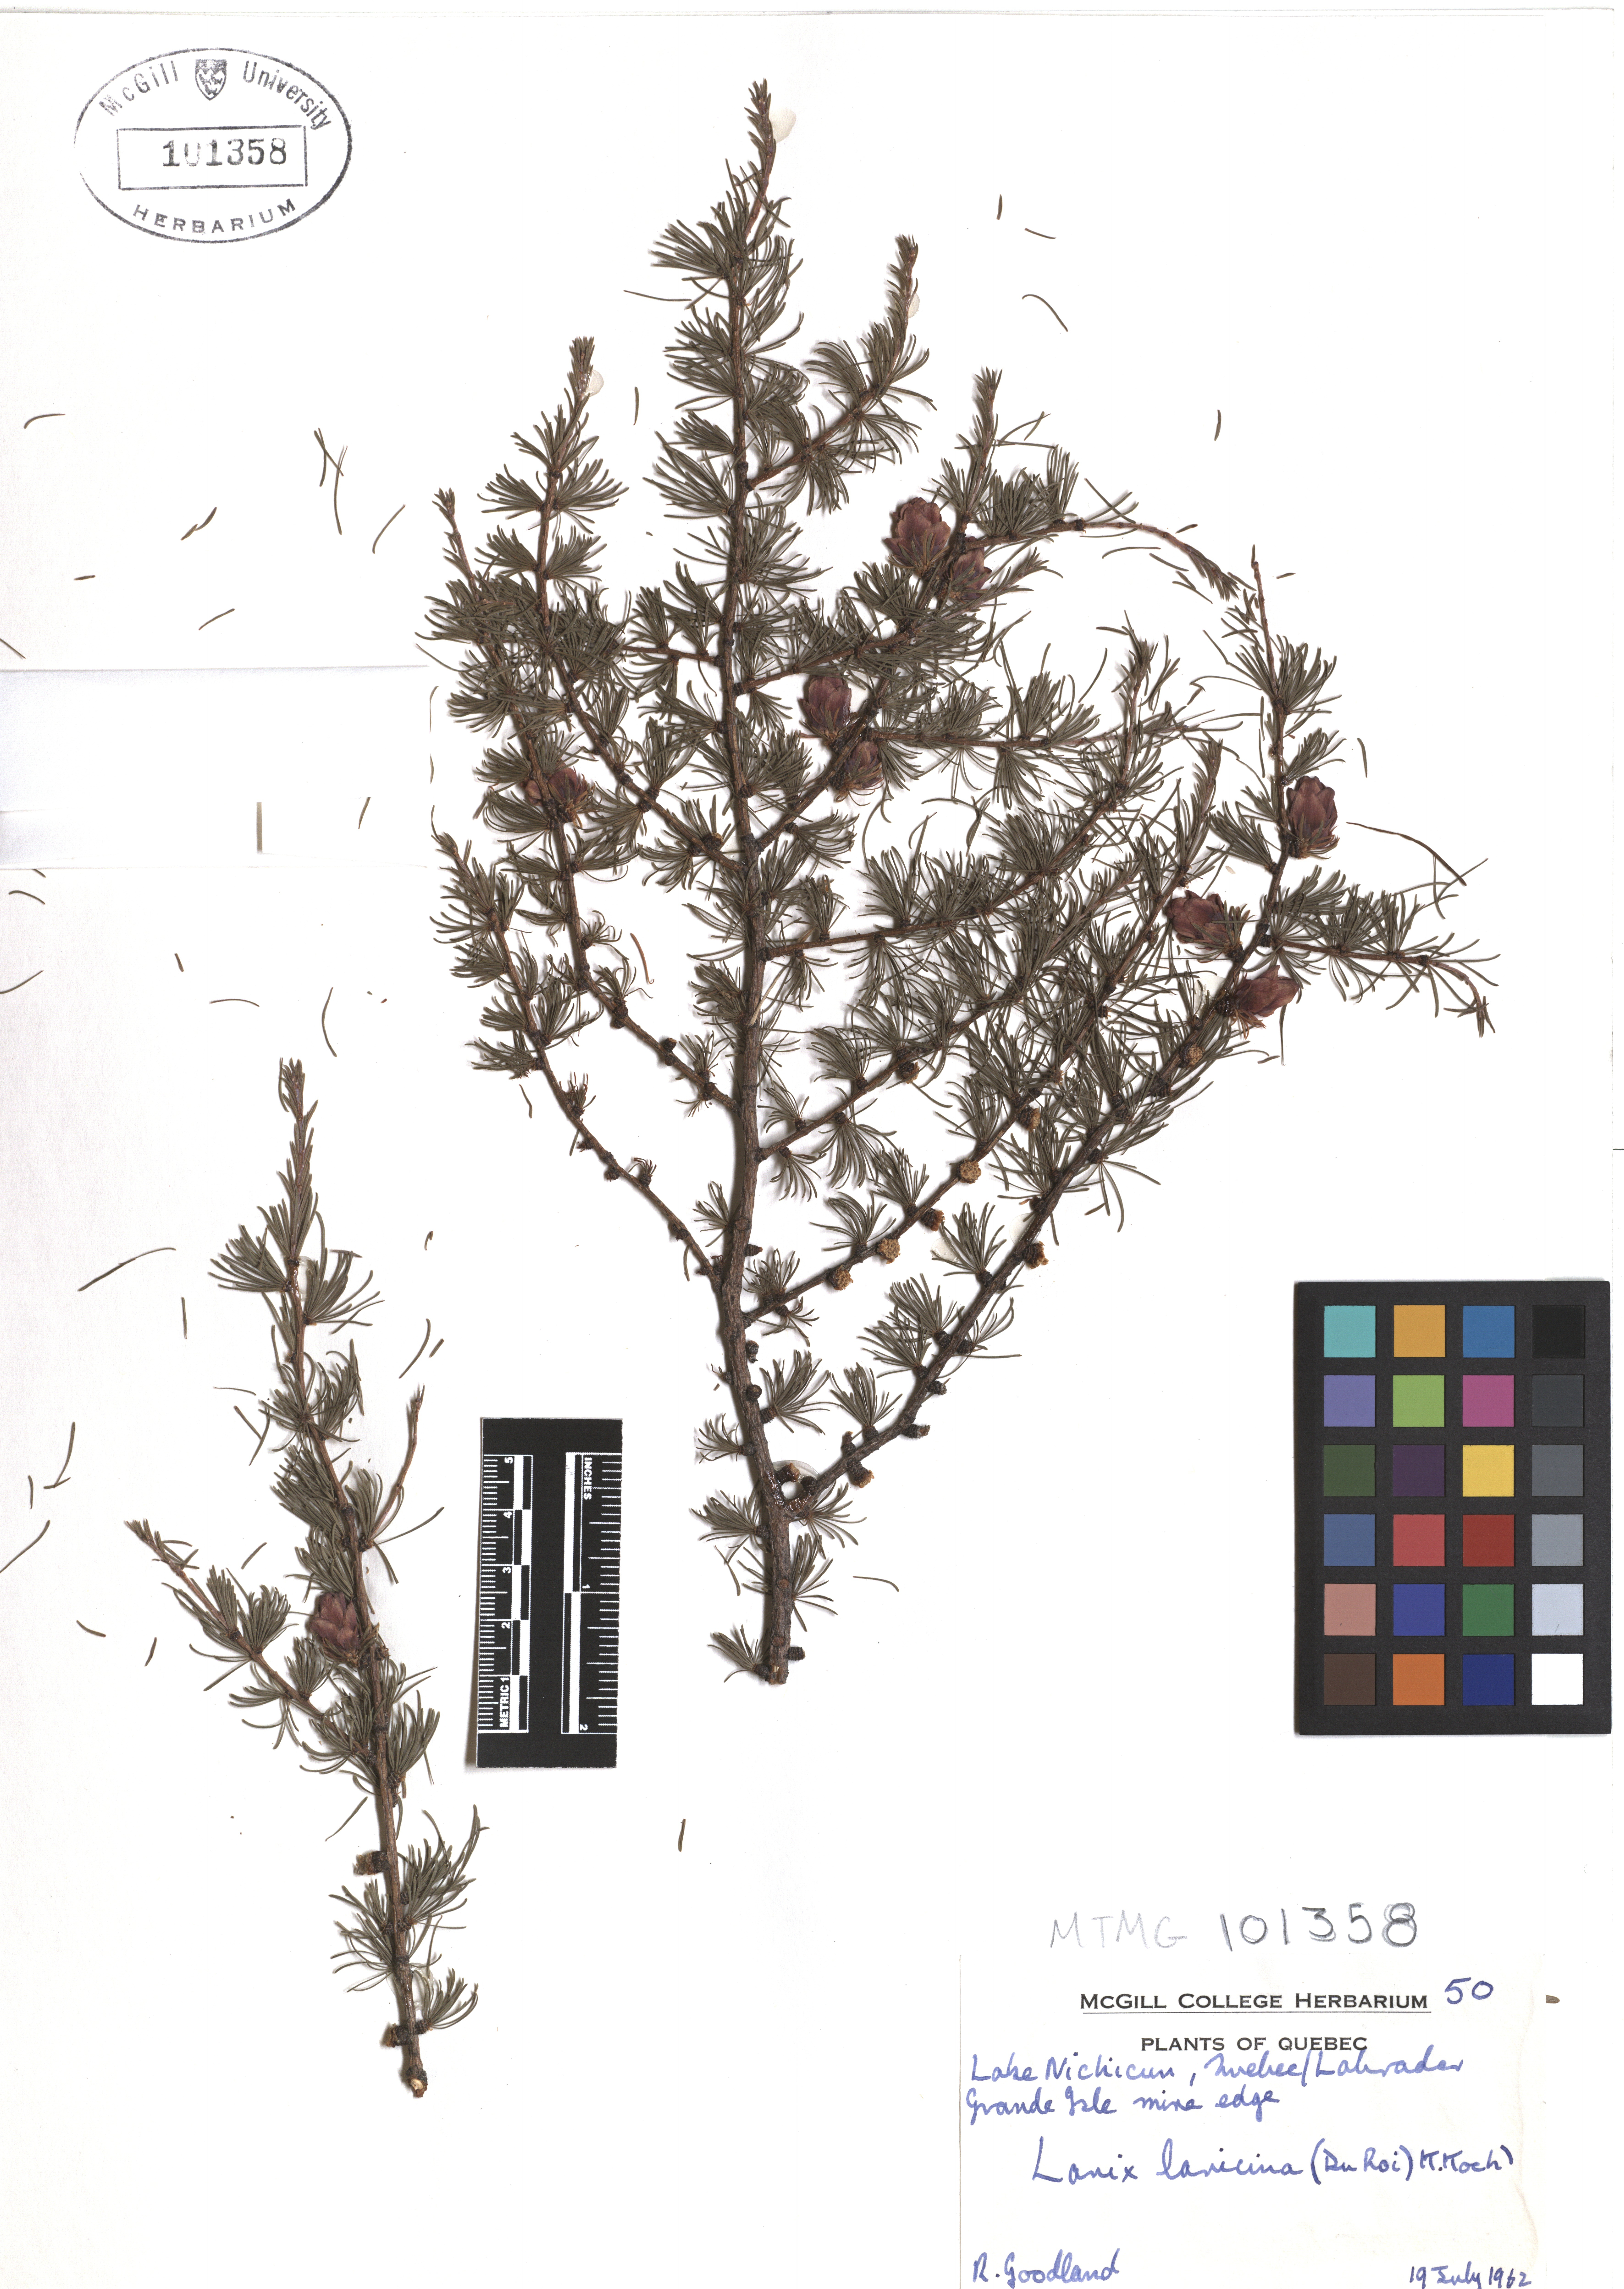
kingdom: Plantae
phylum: Tracheophyta
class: Pinopsida
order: Pinales
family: Pinaceae
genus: Larix
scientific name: Larix laricina
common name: American larch
